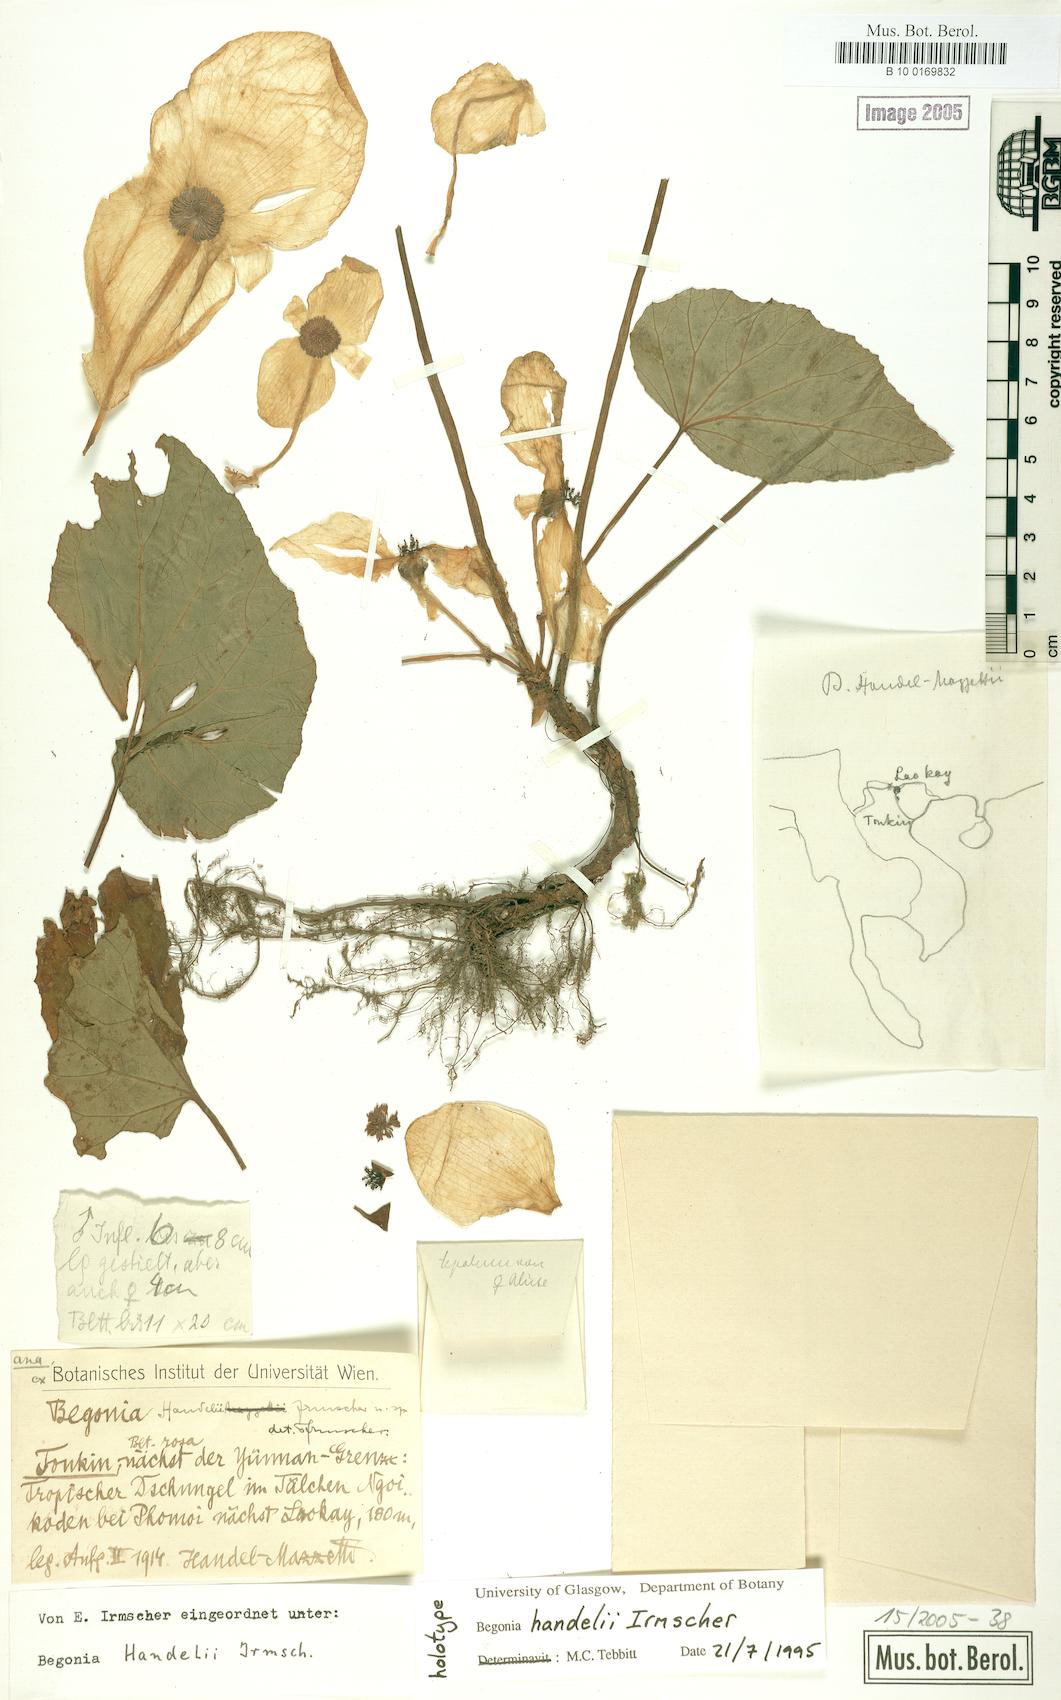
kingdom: Plantae
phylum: Tracheophyta
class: Magnoliopsida
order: Cucurbitales
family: Begoniaceae
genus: Begonia
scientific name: Begonia handelii
